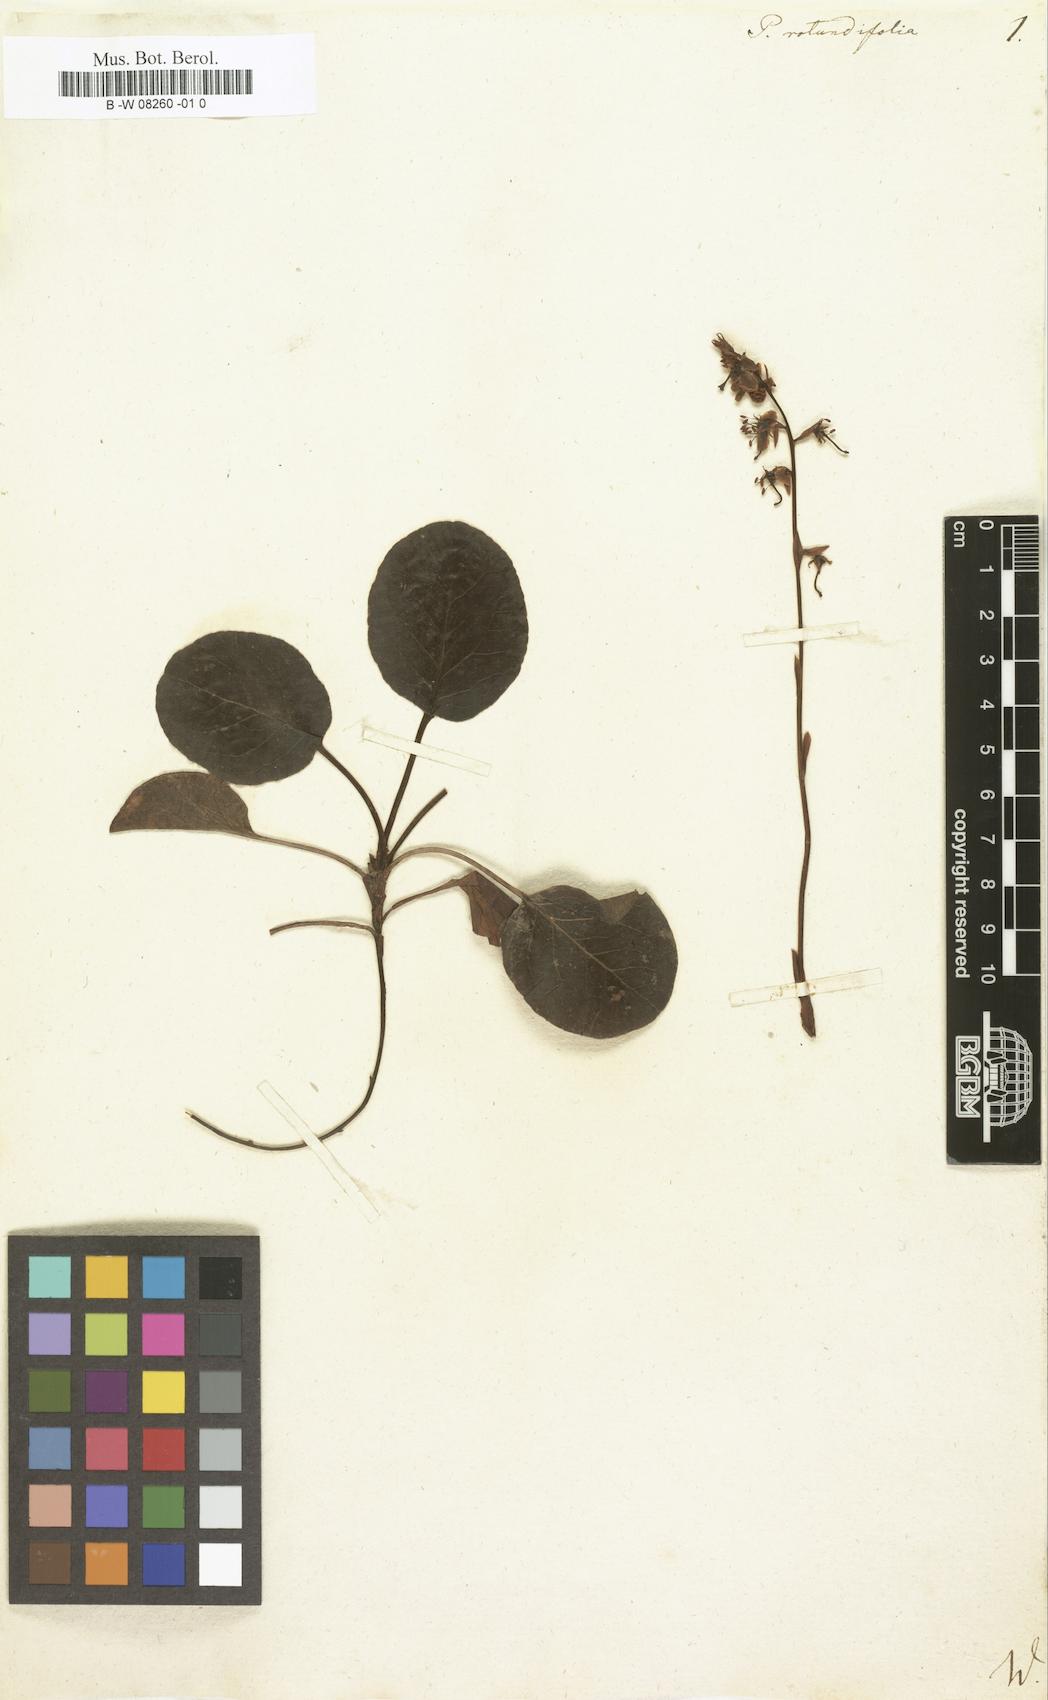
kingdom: Plantae
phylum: Tracheophyta
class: Magnoliopsida
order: Ericales
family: Ericaceae
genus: Pyrola
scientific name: Pyrola rotundifolia
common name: Round-leaved wintergreen
